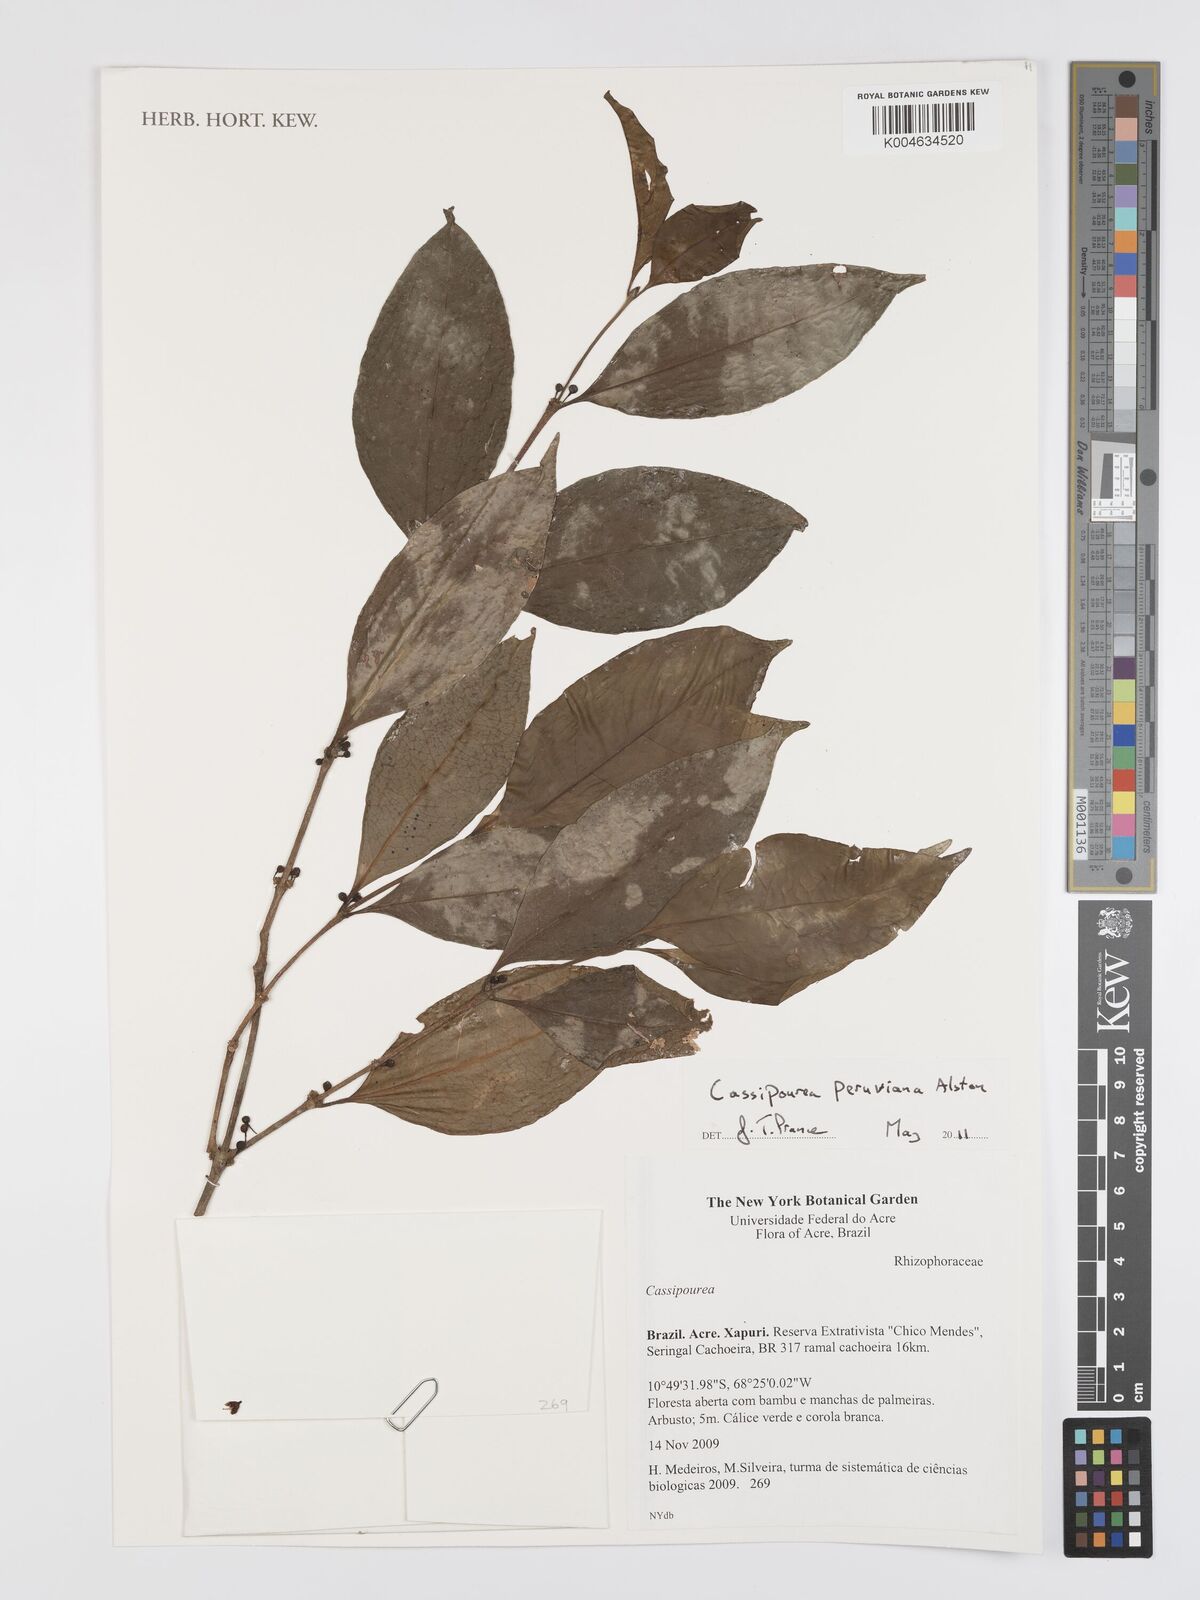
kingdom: Plantae
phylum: Tracheophyta
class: Magnoliopsida
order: Malpighiales
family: Rhizophoraceae
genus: Cassipourea
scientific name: Cassipourea peruviana
